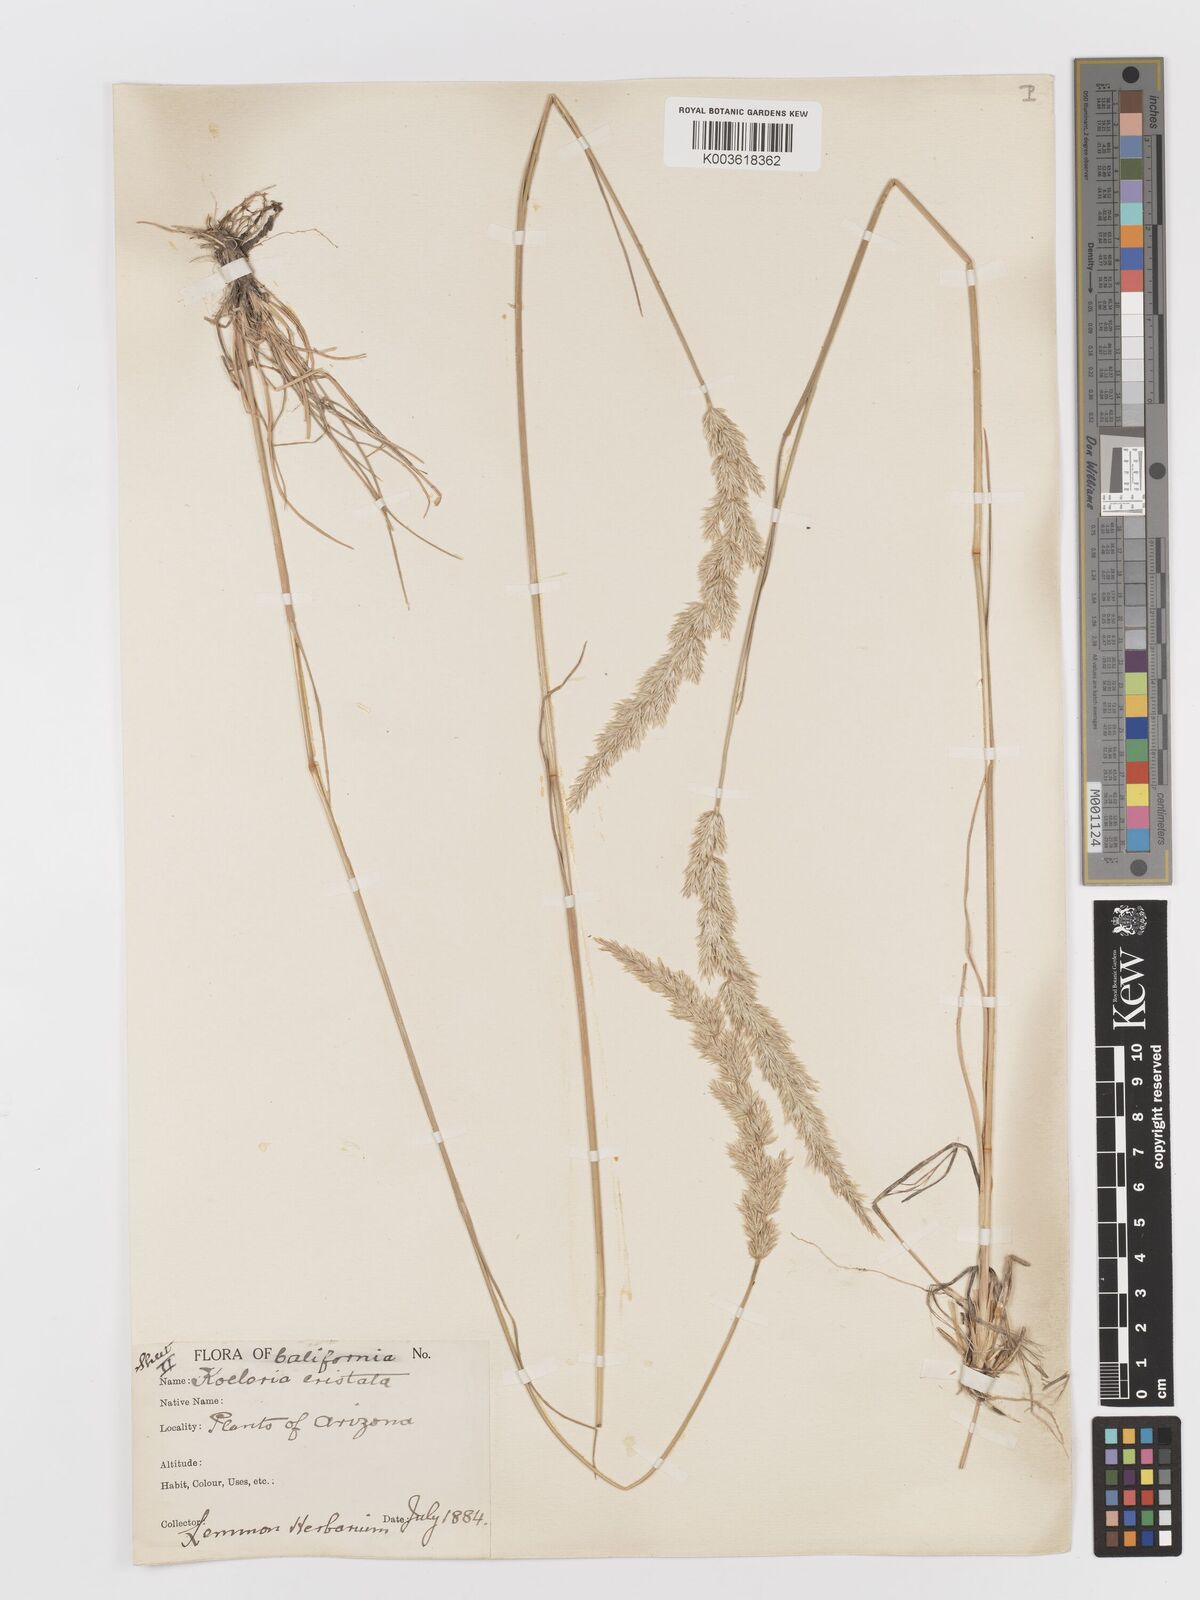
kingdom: Plantae
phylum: Tracheophyta
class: Liliopsida
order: Poales
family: Poaceae
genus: Koeleria
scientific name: Koeleria
